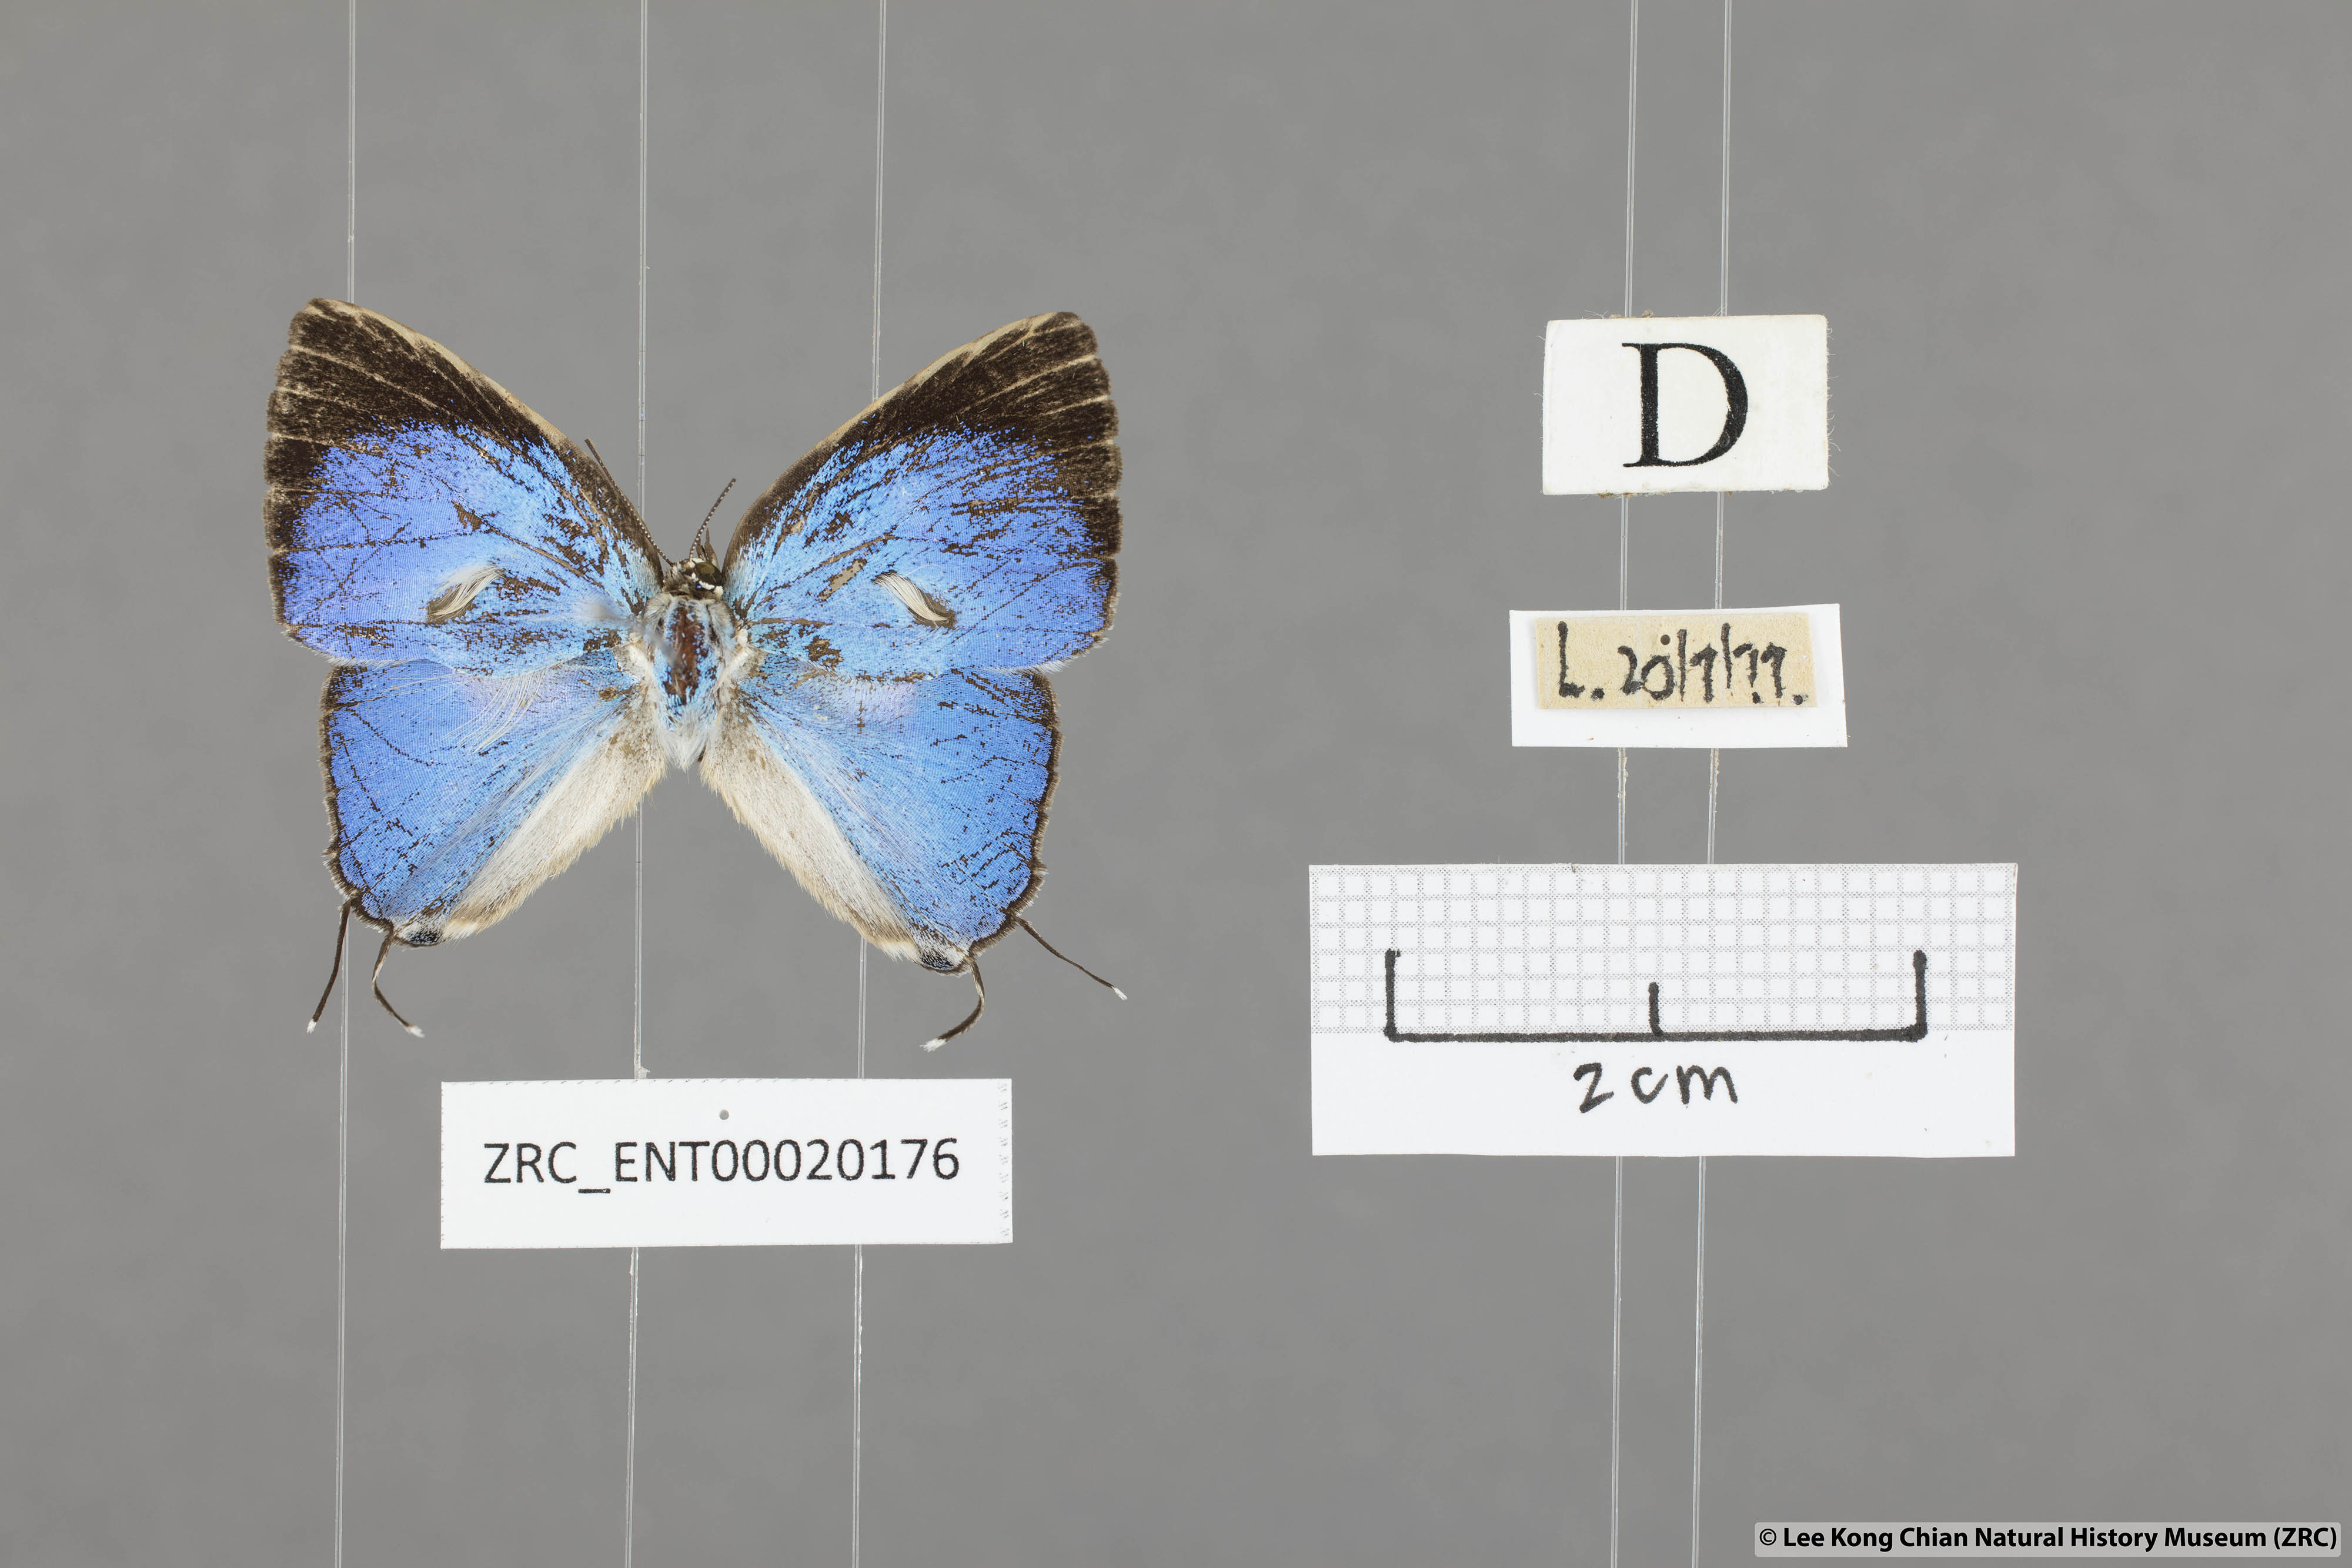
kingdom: Animalia
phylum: Arthropoda
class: Insecta
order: Lepidoptera
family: Lycaenidae
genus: Dacalana
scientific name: Dacalana vidura
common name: Medium-branded royal
